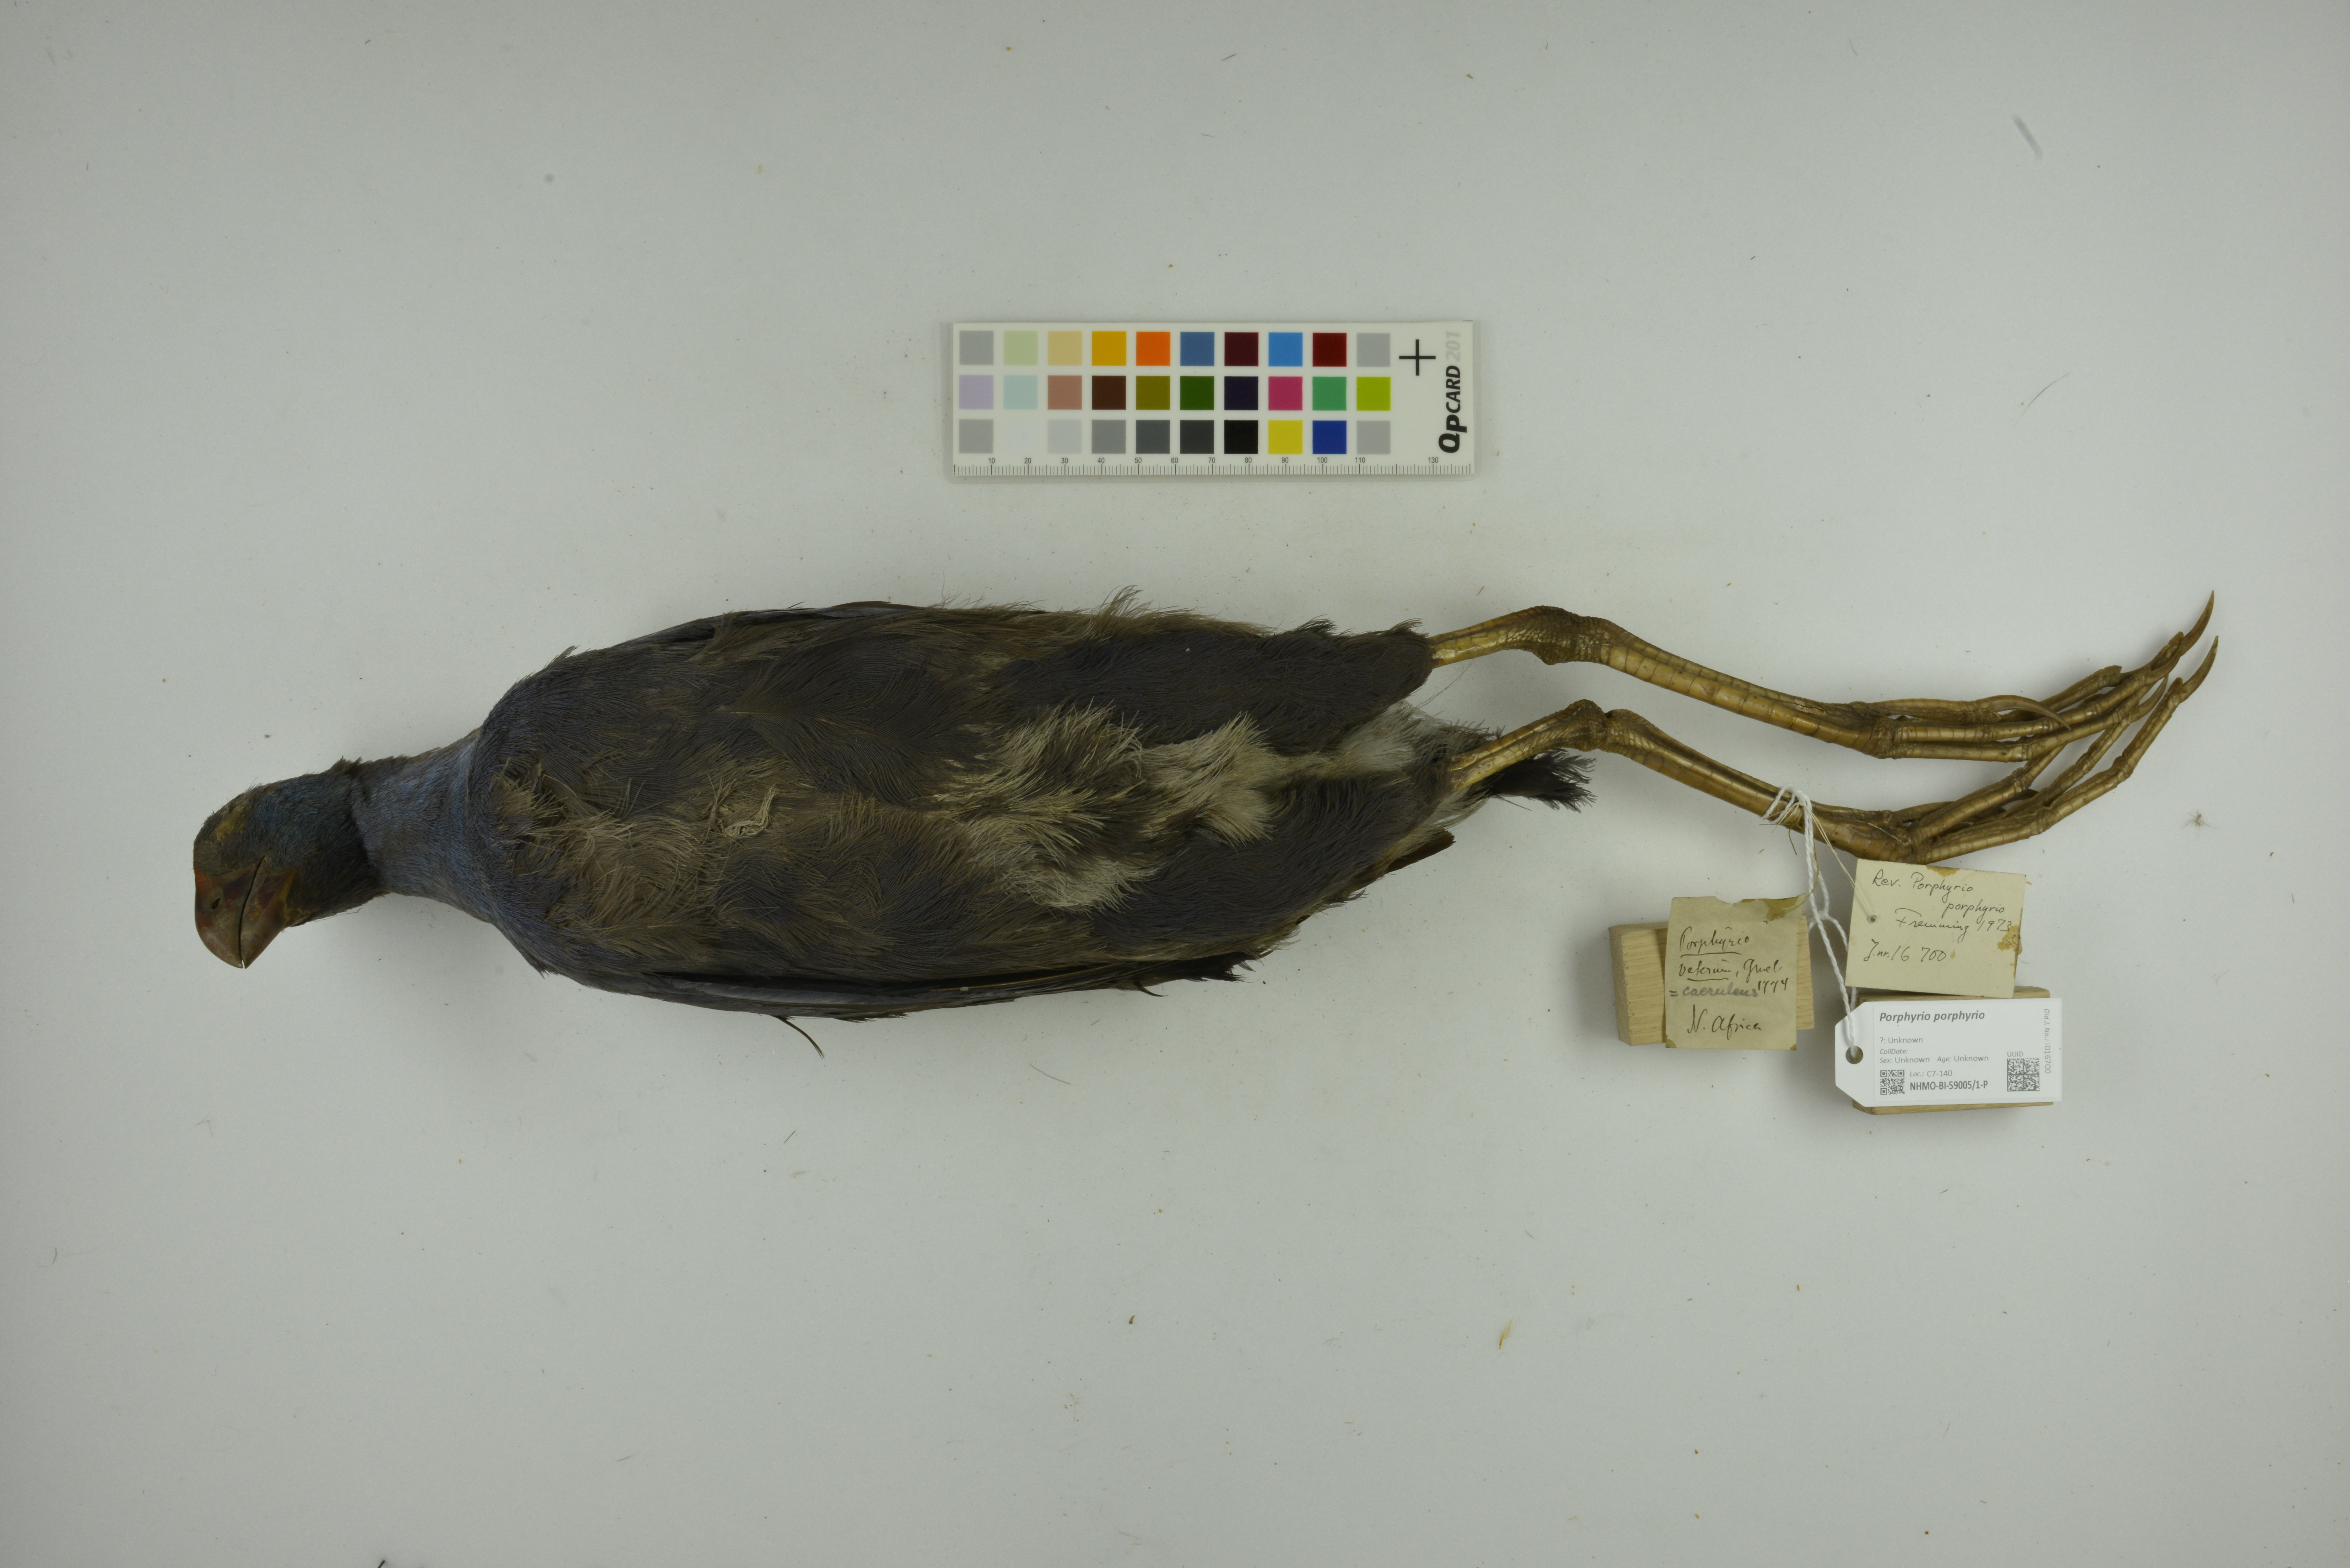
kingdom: Animalia
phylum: Chordata
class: Aves
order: Gruiformes
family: Rallidae
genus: Porphyrio
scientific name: Porphyrio porphyrio
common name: Purple swamphen
